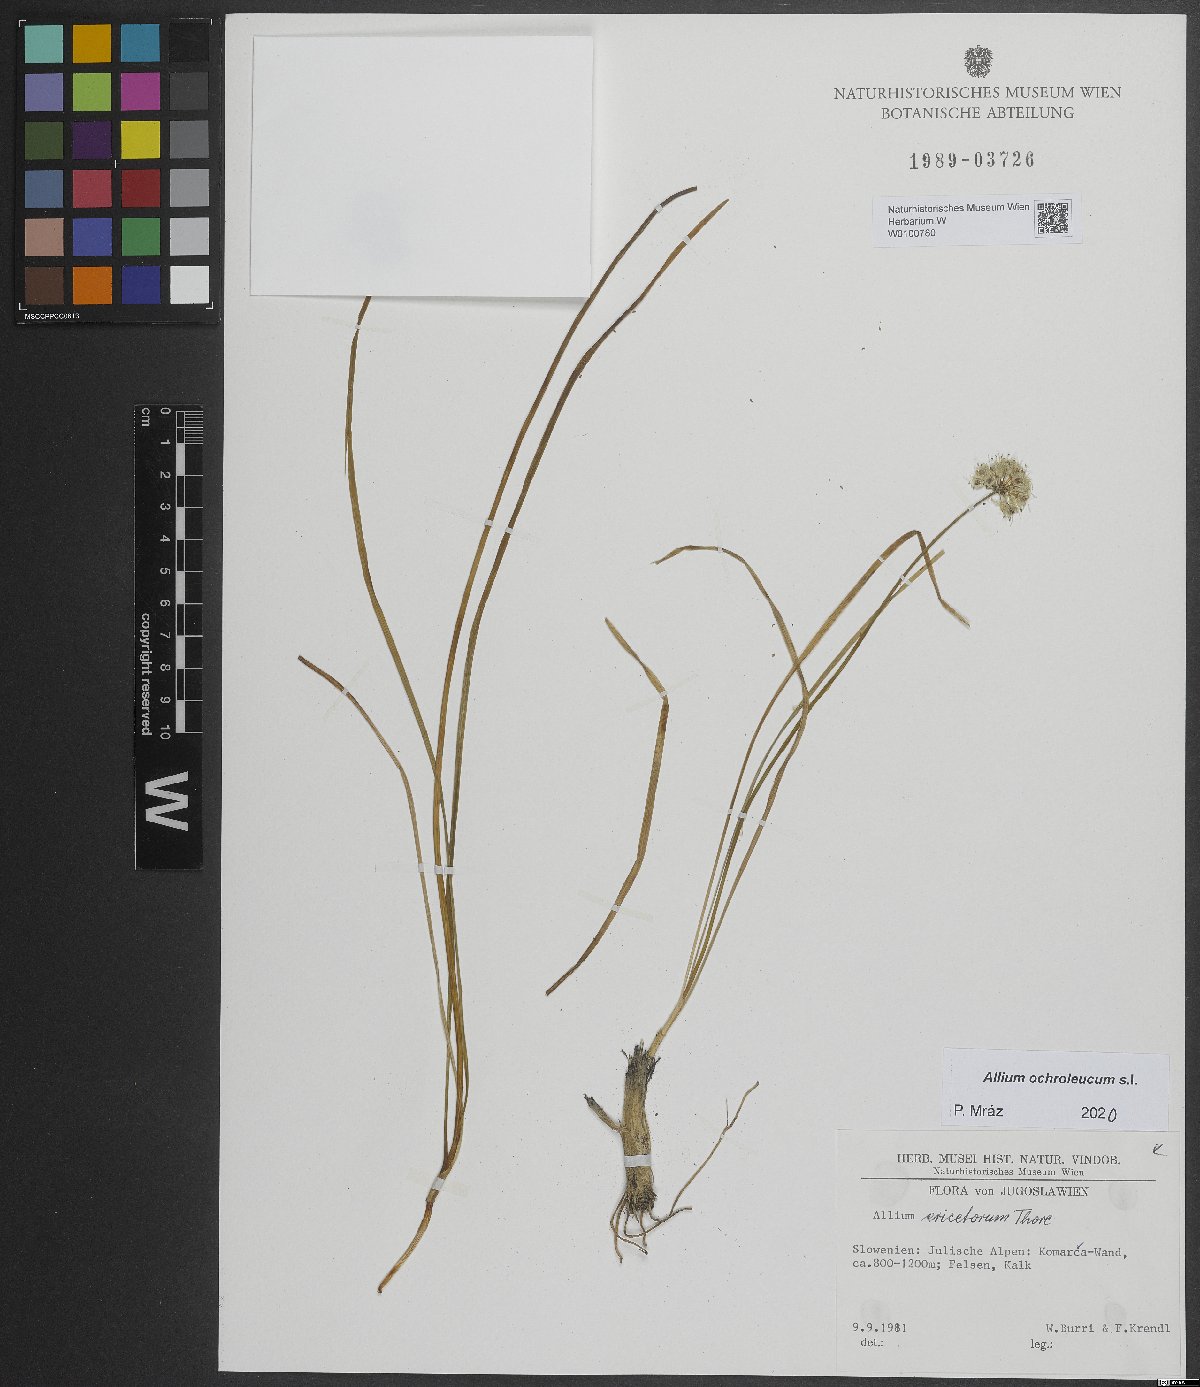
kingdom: Plantae
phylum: Tracheophyta
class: Liliopsida
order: Asparagales
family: Amaryllidaceae
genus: Allium
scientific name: Allium ericetorum
